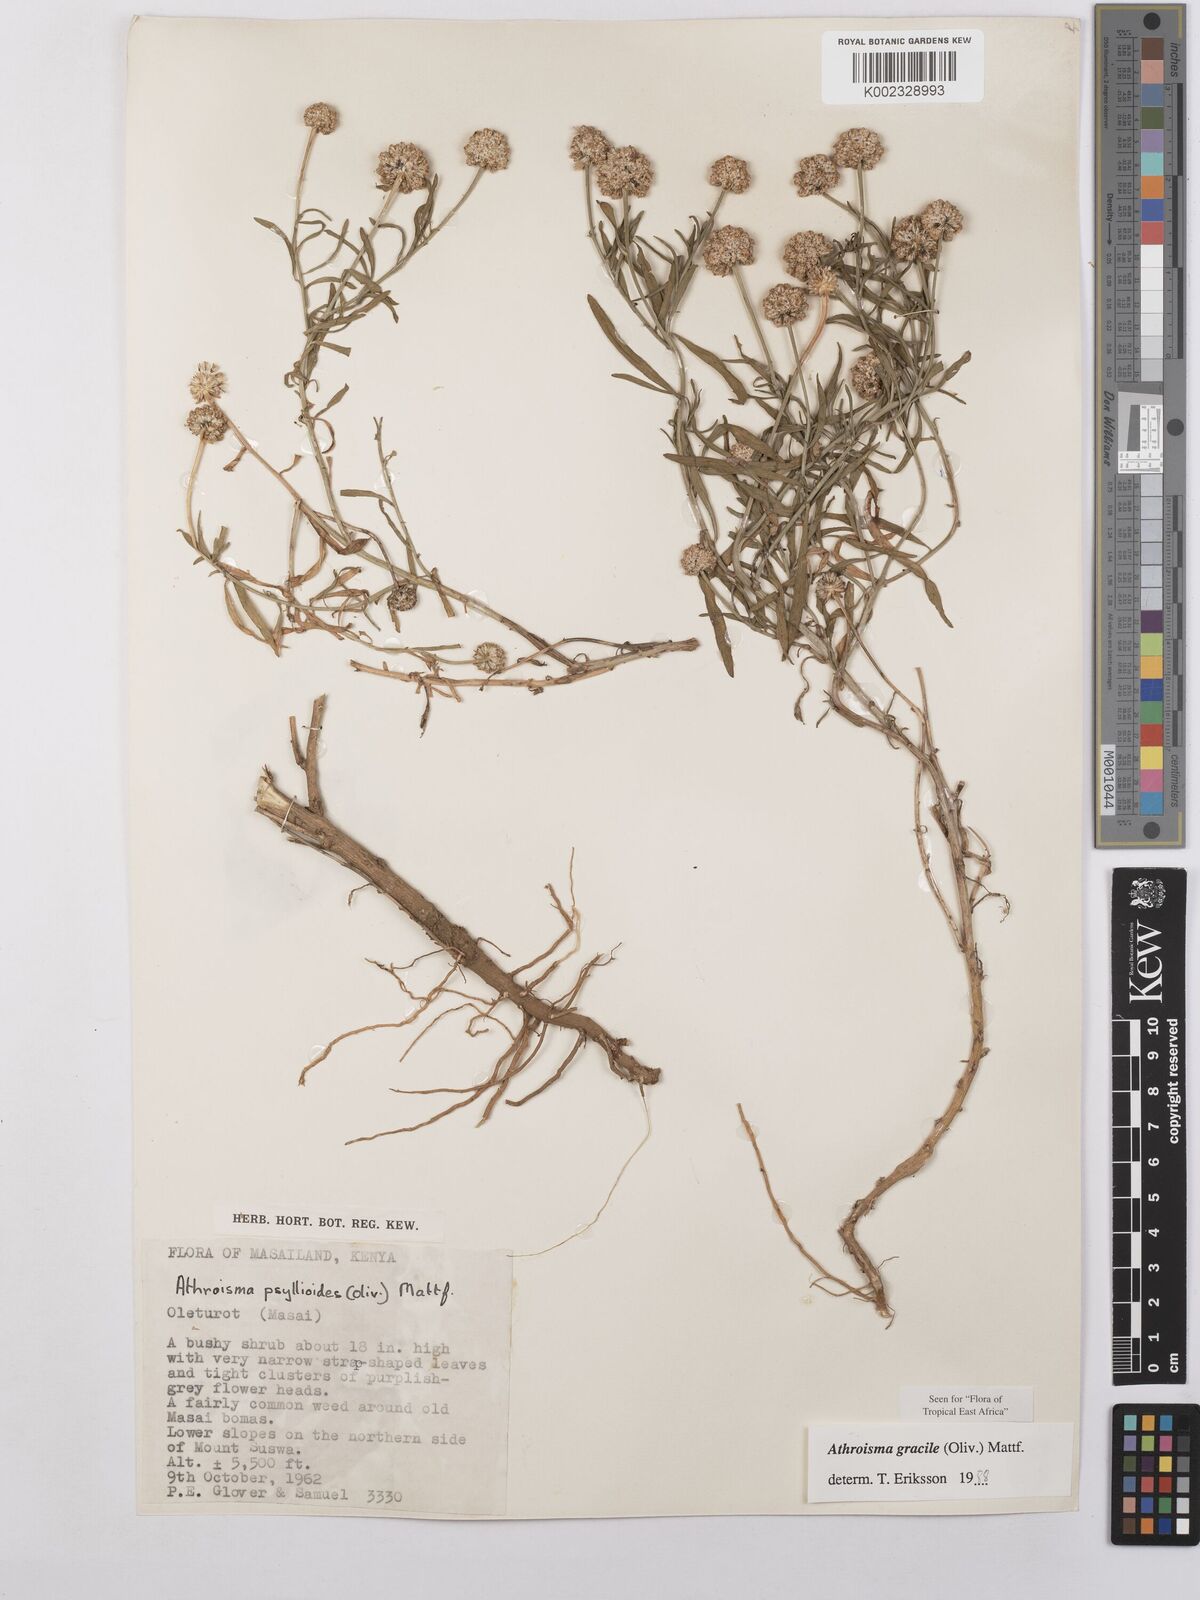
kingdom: Plantae
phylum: Tracheophyta
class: Magnoliopsida
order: Asterales
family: Asteraceae
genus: Athroisma
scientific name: Athroisma gracile
